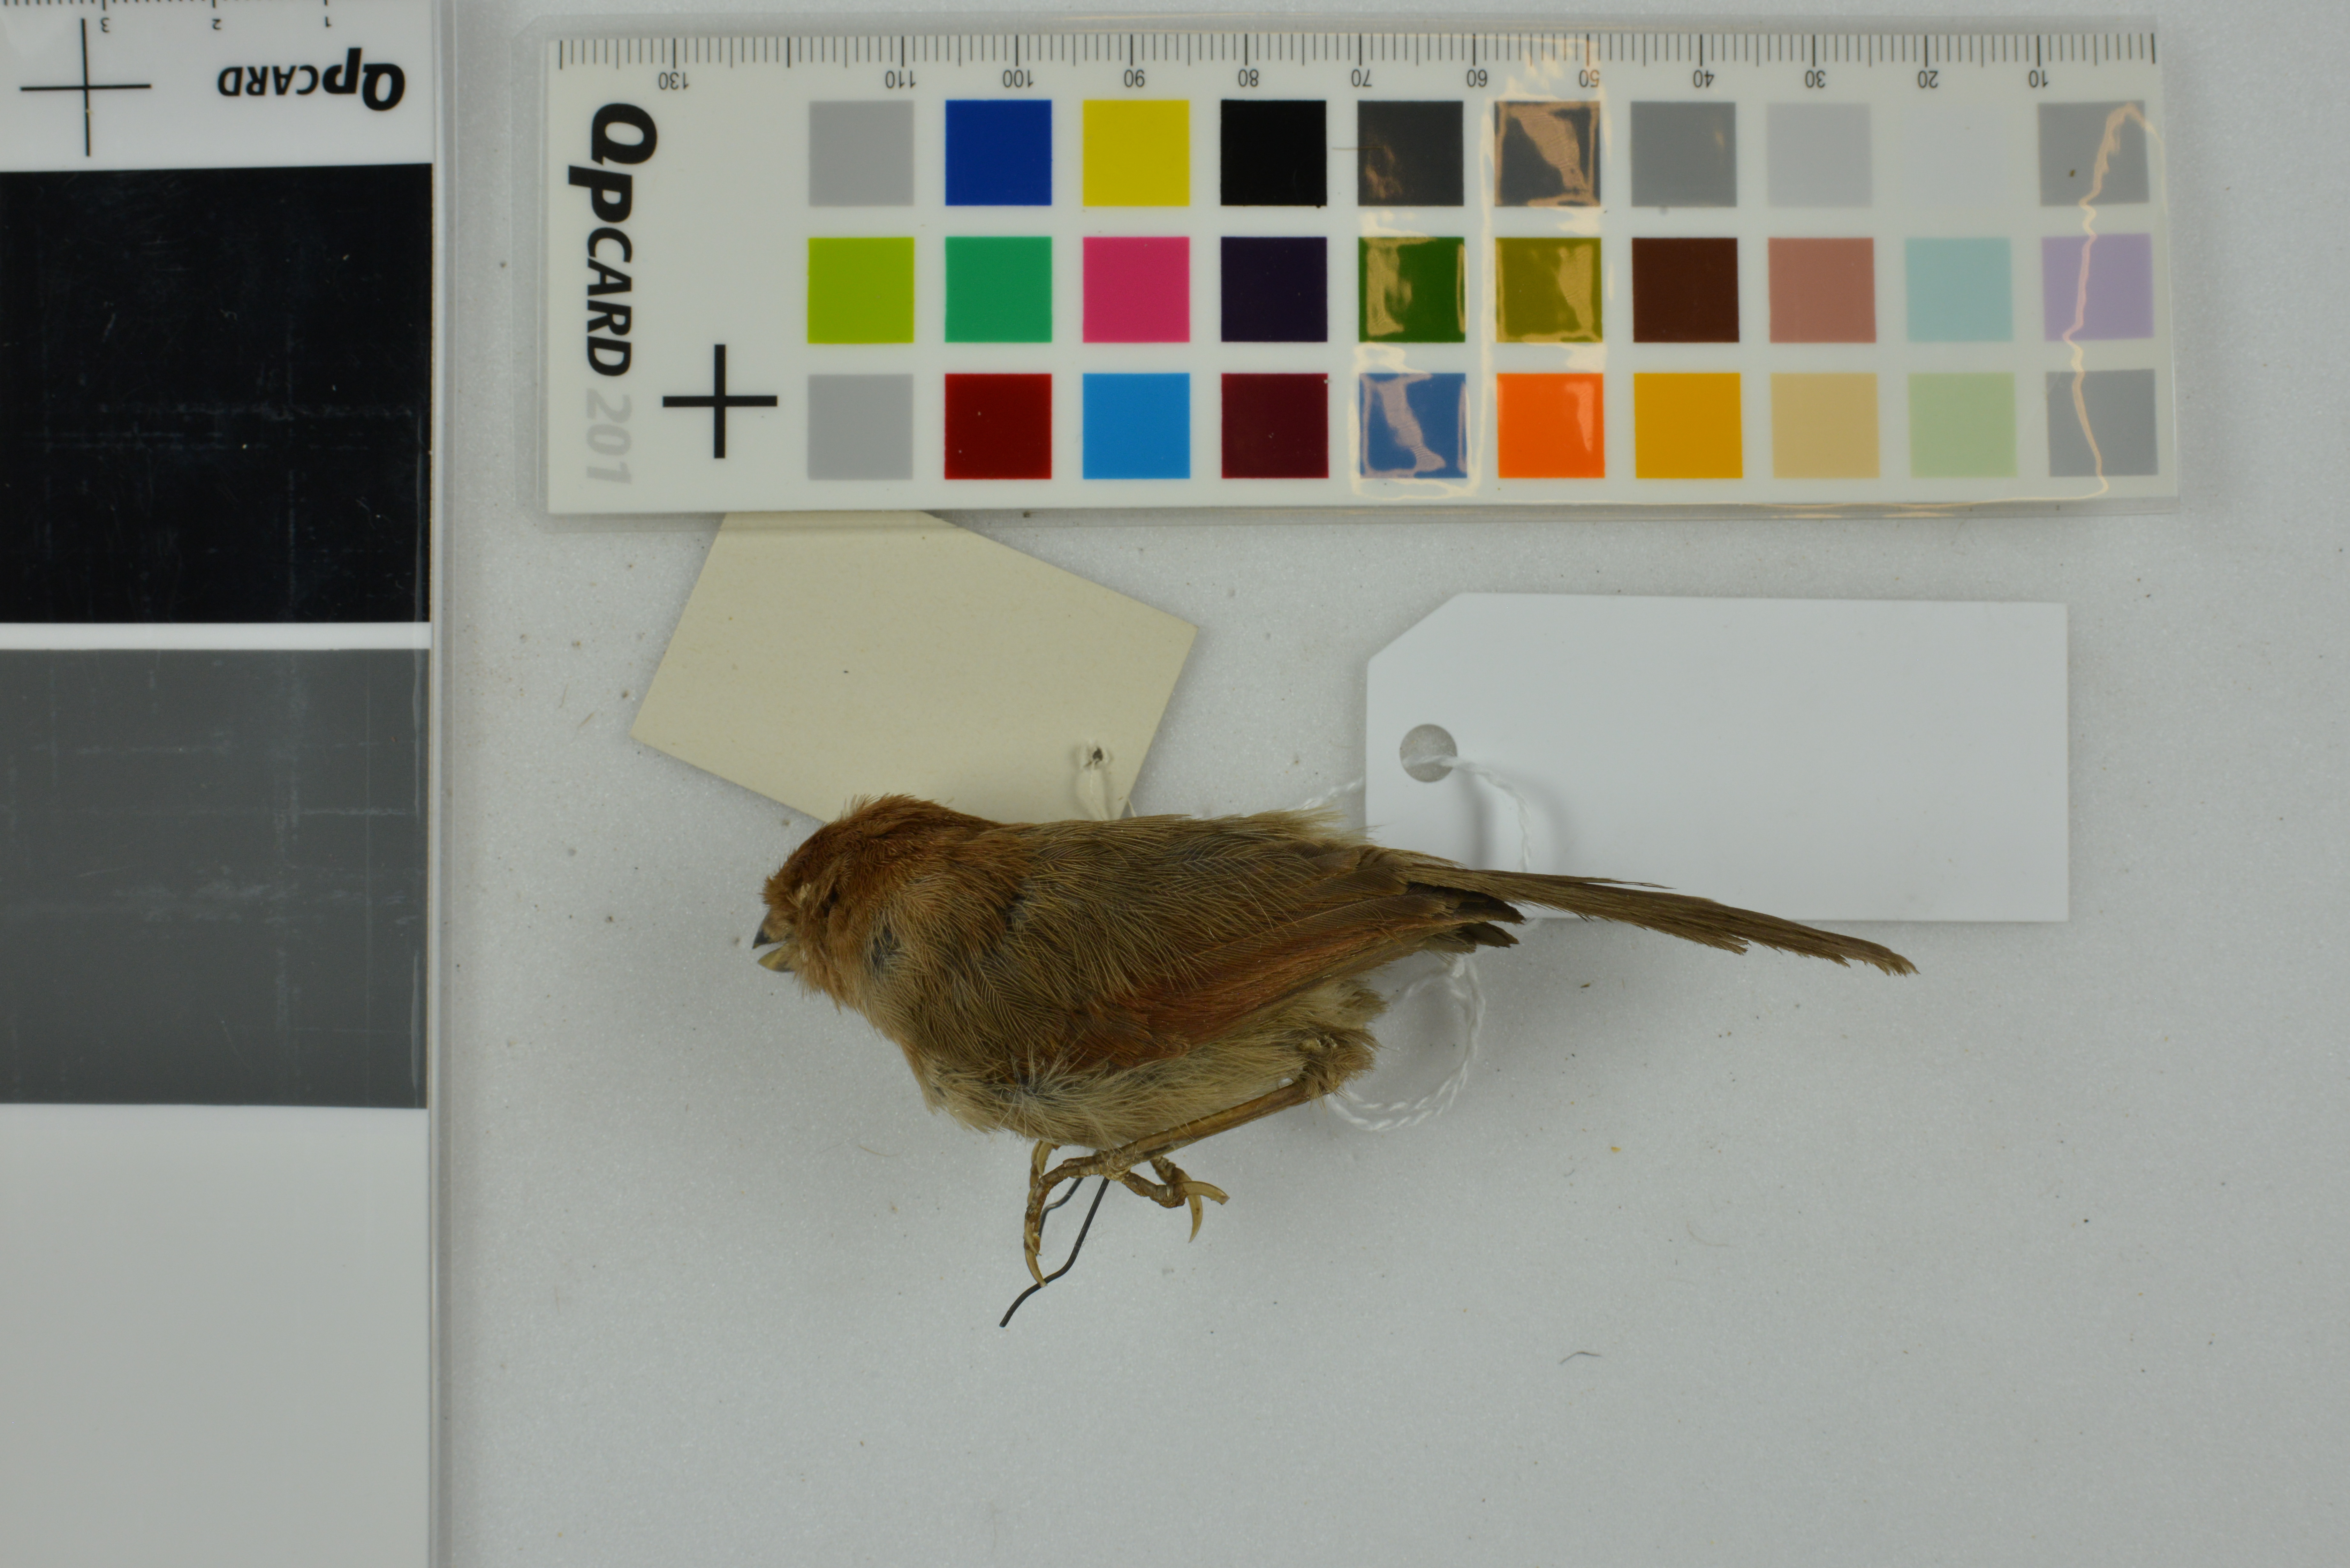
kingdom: Animalia
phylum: Chordata
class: Aves
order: Passeriformes
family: Sylviidae
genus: Sinosuthora
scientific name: Sinosuthora webbiana
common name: Vinous-throated parrotbill
